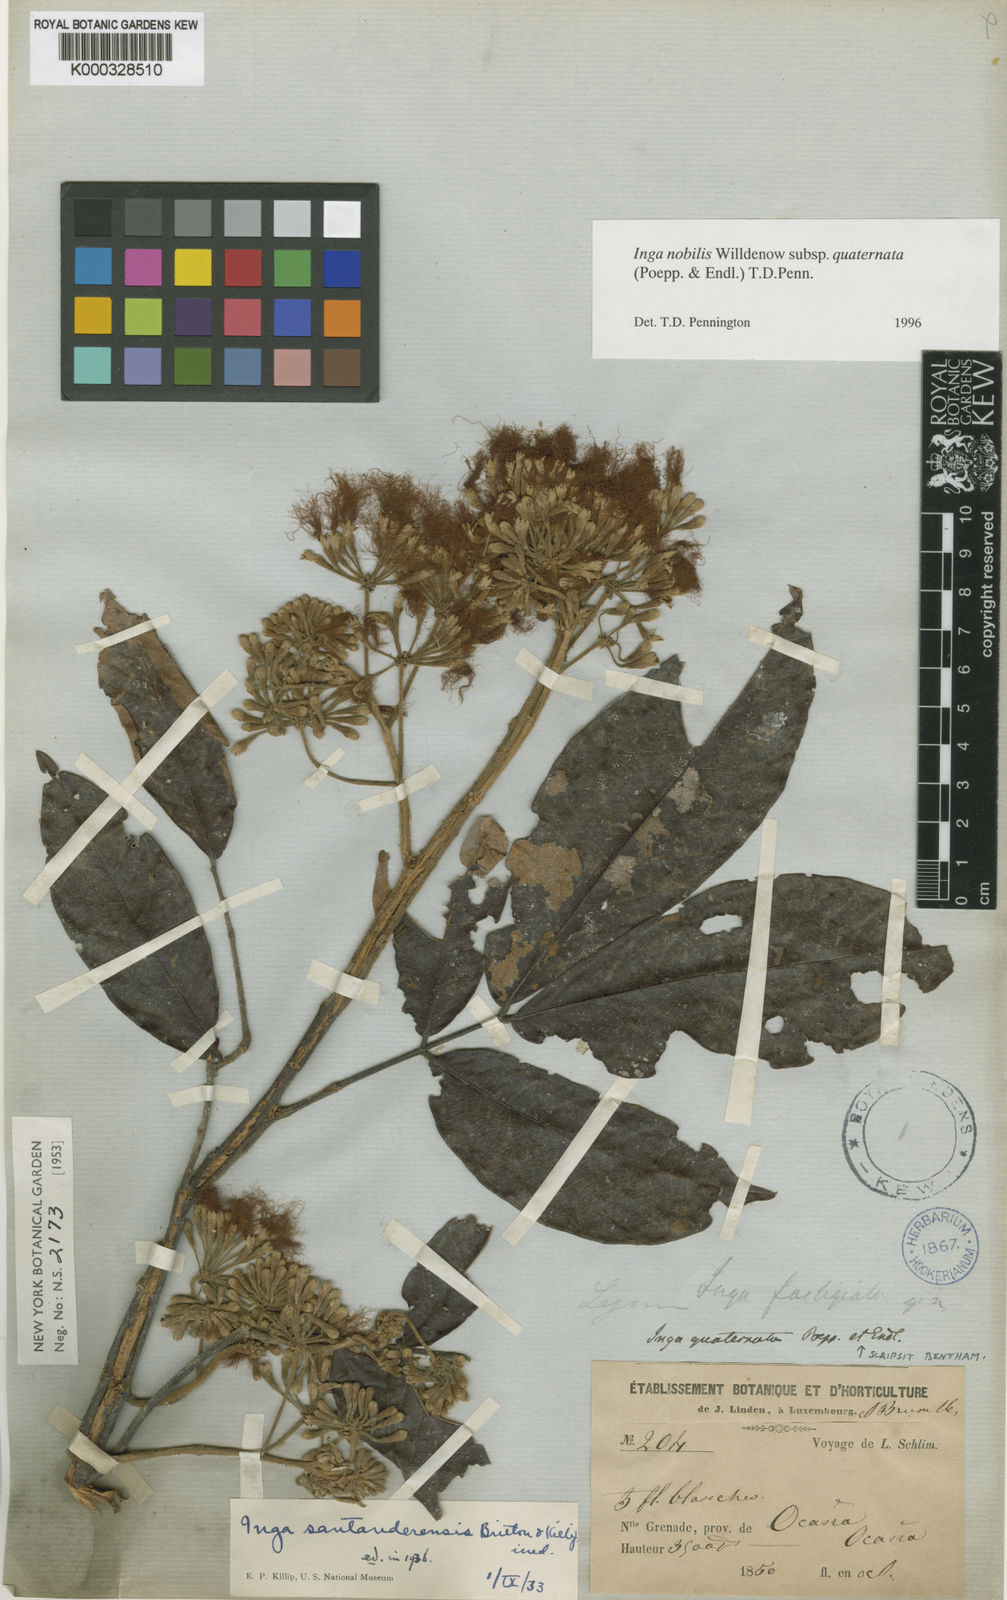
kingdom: Plantae
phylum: Tracheophyta
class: Magnoliopsida
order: Fabales
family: Fabaceae
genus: Inga
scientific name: Inga nobilis
